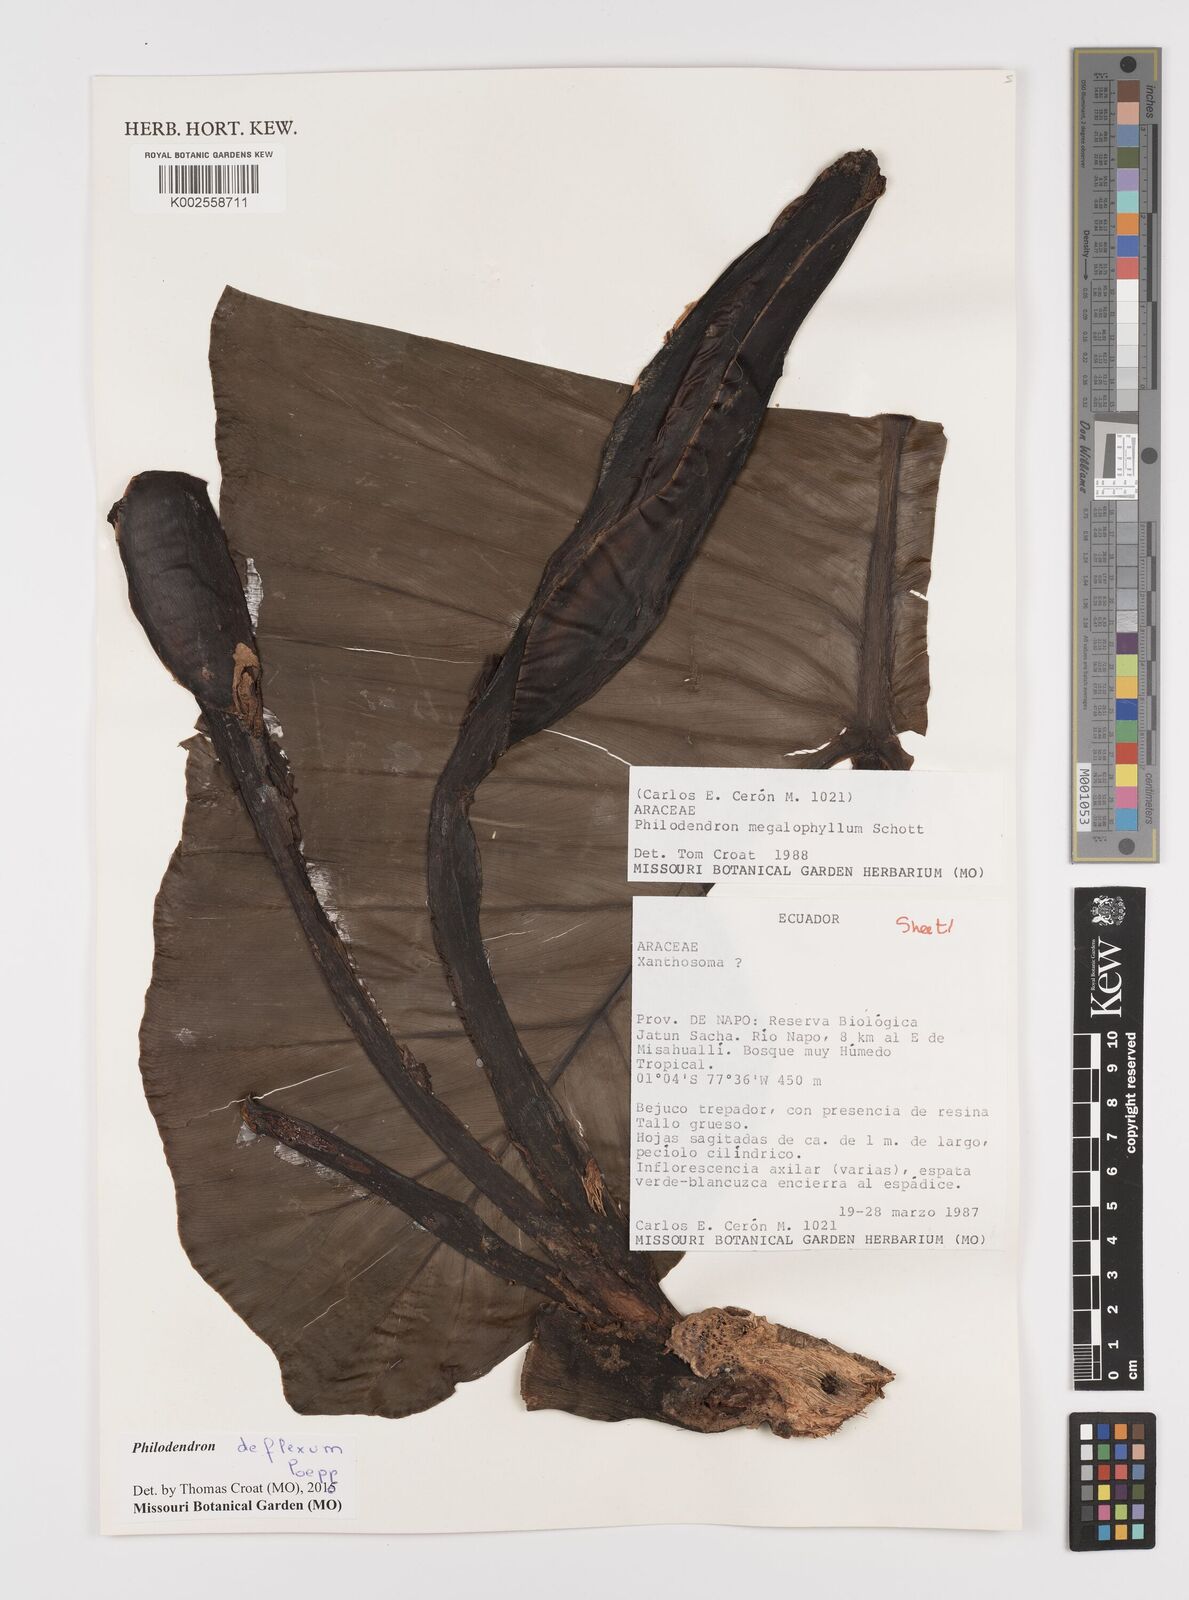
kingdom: Plantae
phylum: Tracheophyta
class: Liliopsida
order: Alismatales
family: Araceae
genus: Philodendron
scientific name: Philodendron deflexum
